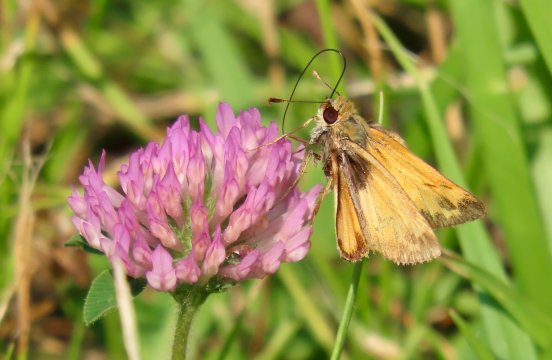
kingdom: Animalia
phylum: Arthropoda
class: Insecta
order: Lepidoptera
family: Hesperiidae
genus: Lon
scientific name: Lon zabulon
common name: Zabulon Skipper
